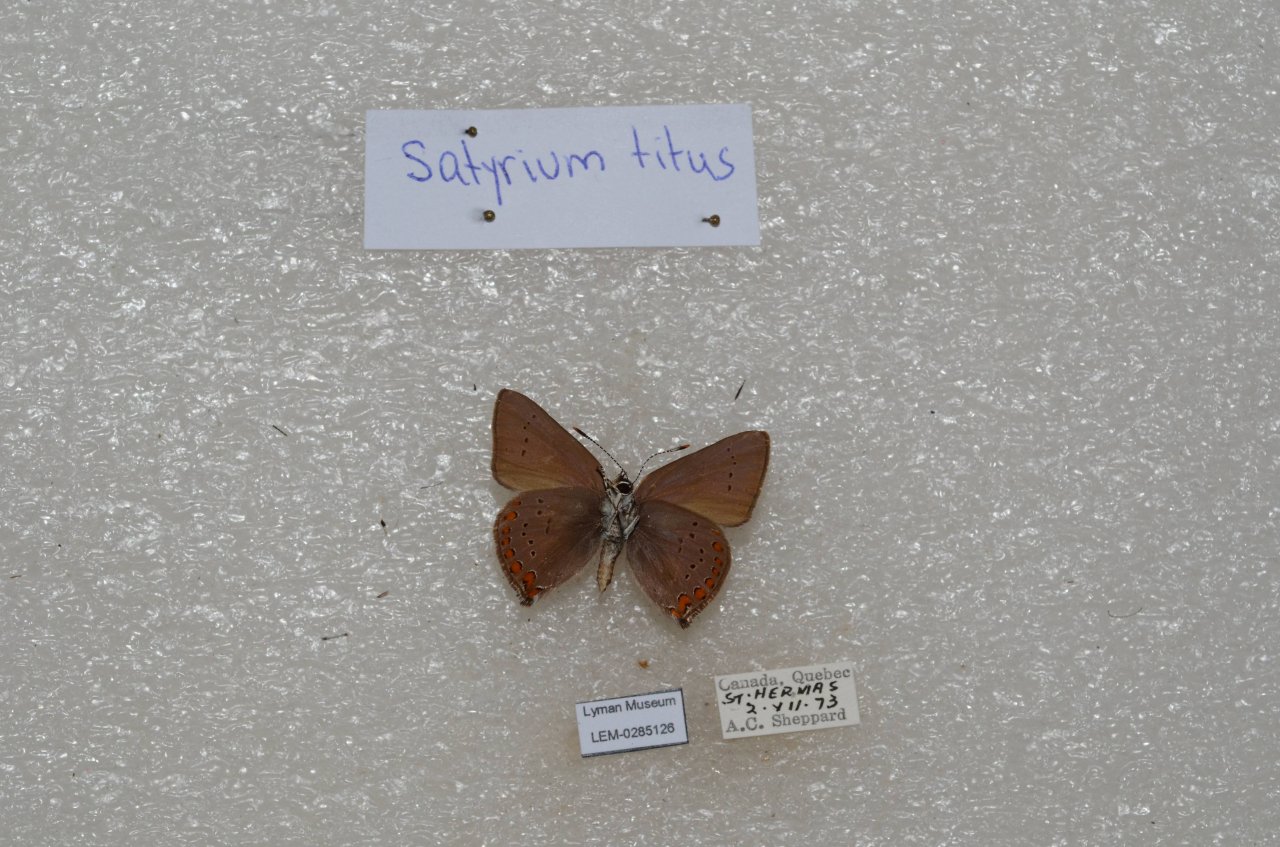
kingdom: Animalia
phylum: Arthropoda
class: Insecta
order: Lepidoptera
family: Lycaenidae
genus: Harkenclenus
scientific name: Harkenclenus titus
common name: Coral Hairstreak
